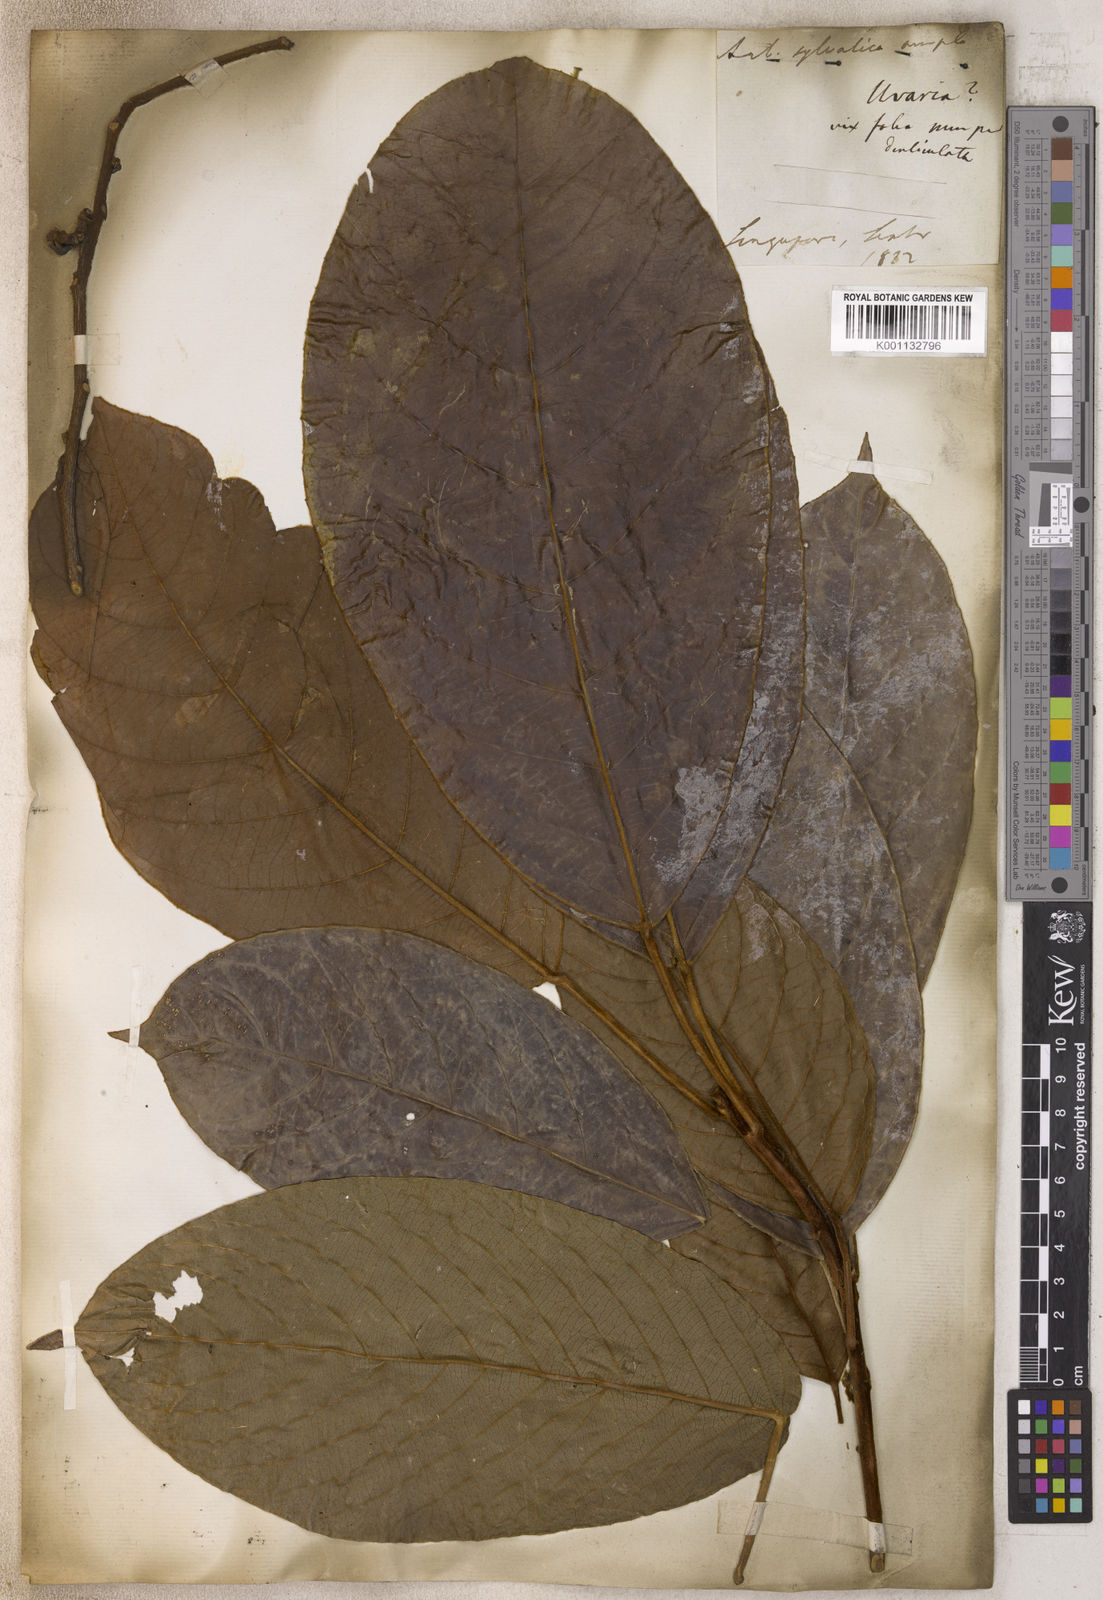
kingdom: Plantae
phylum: Tracheophyta
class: Magnoliopsida
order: Magnoliales
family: Annonaceae
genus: Uvaria
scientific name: Uvaria
